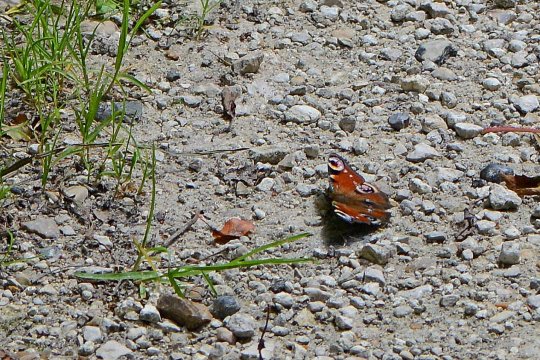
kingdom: Animalia
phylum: Arthropoda
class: Insecta
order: Lepidoptera
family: Nymphalidae
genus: Aglais
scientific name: Aglais io
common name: European Peacock
